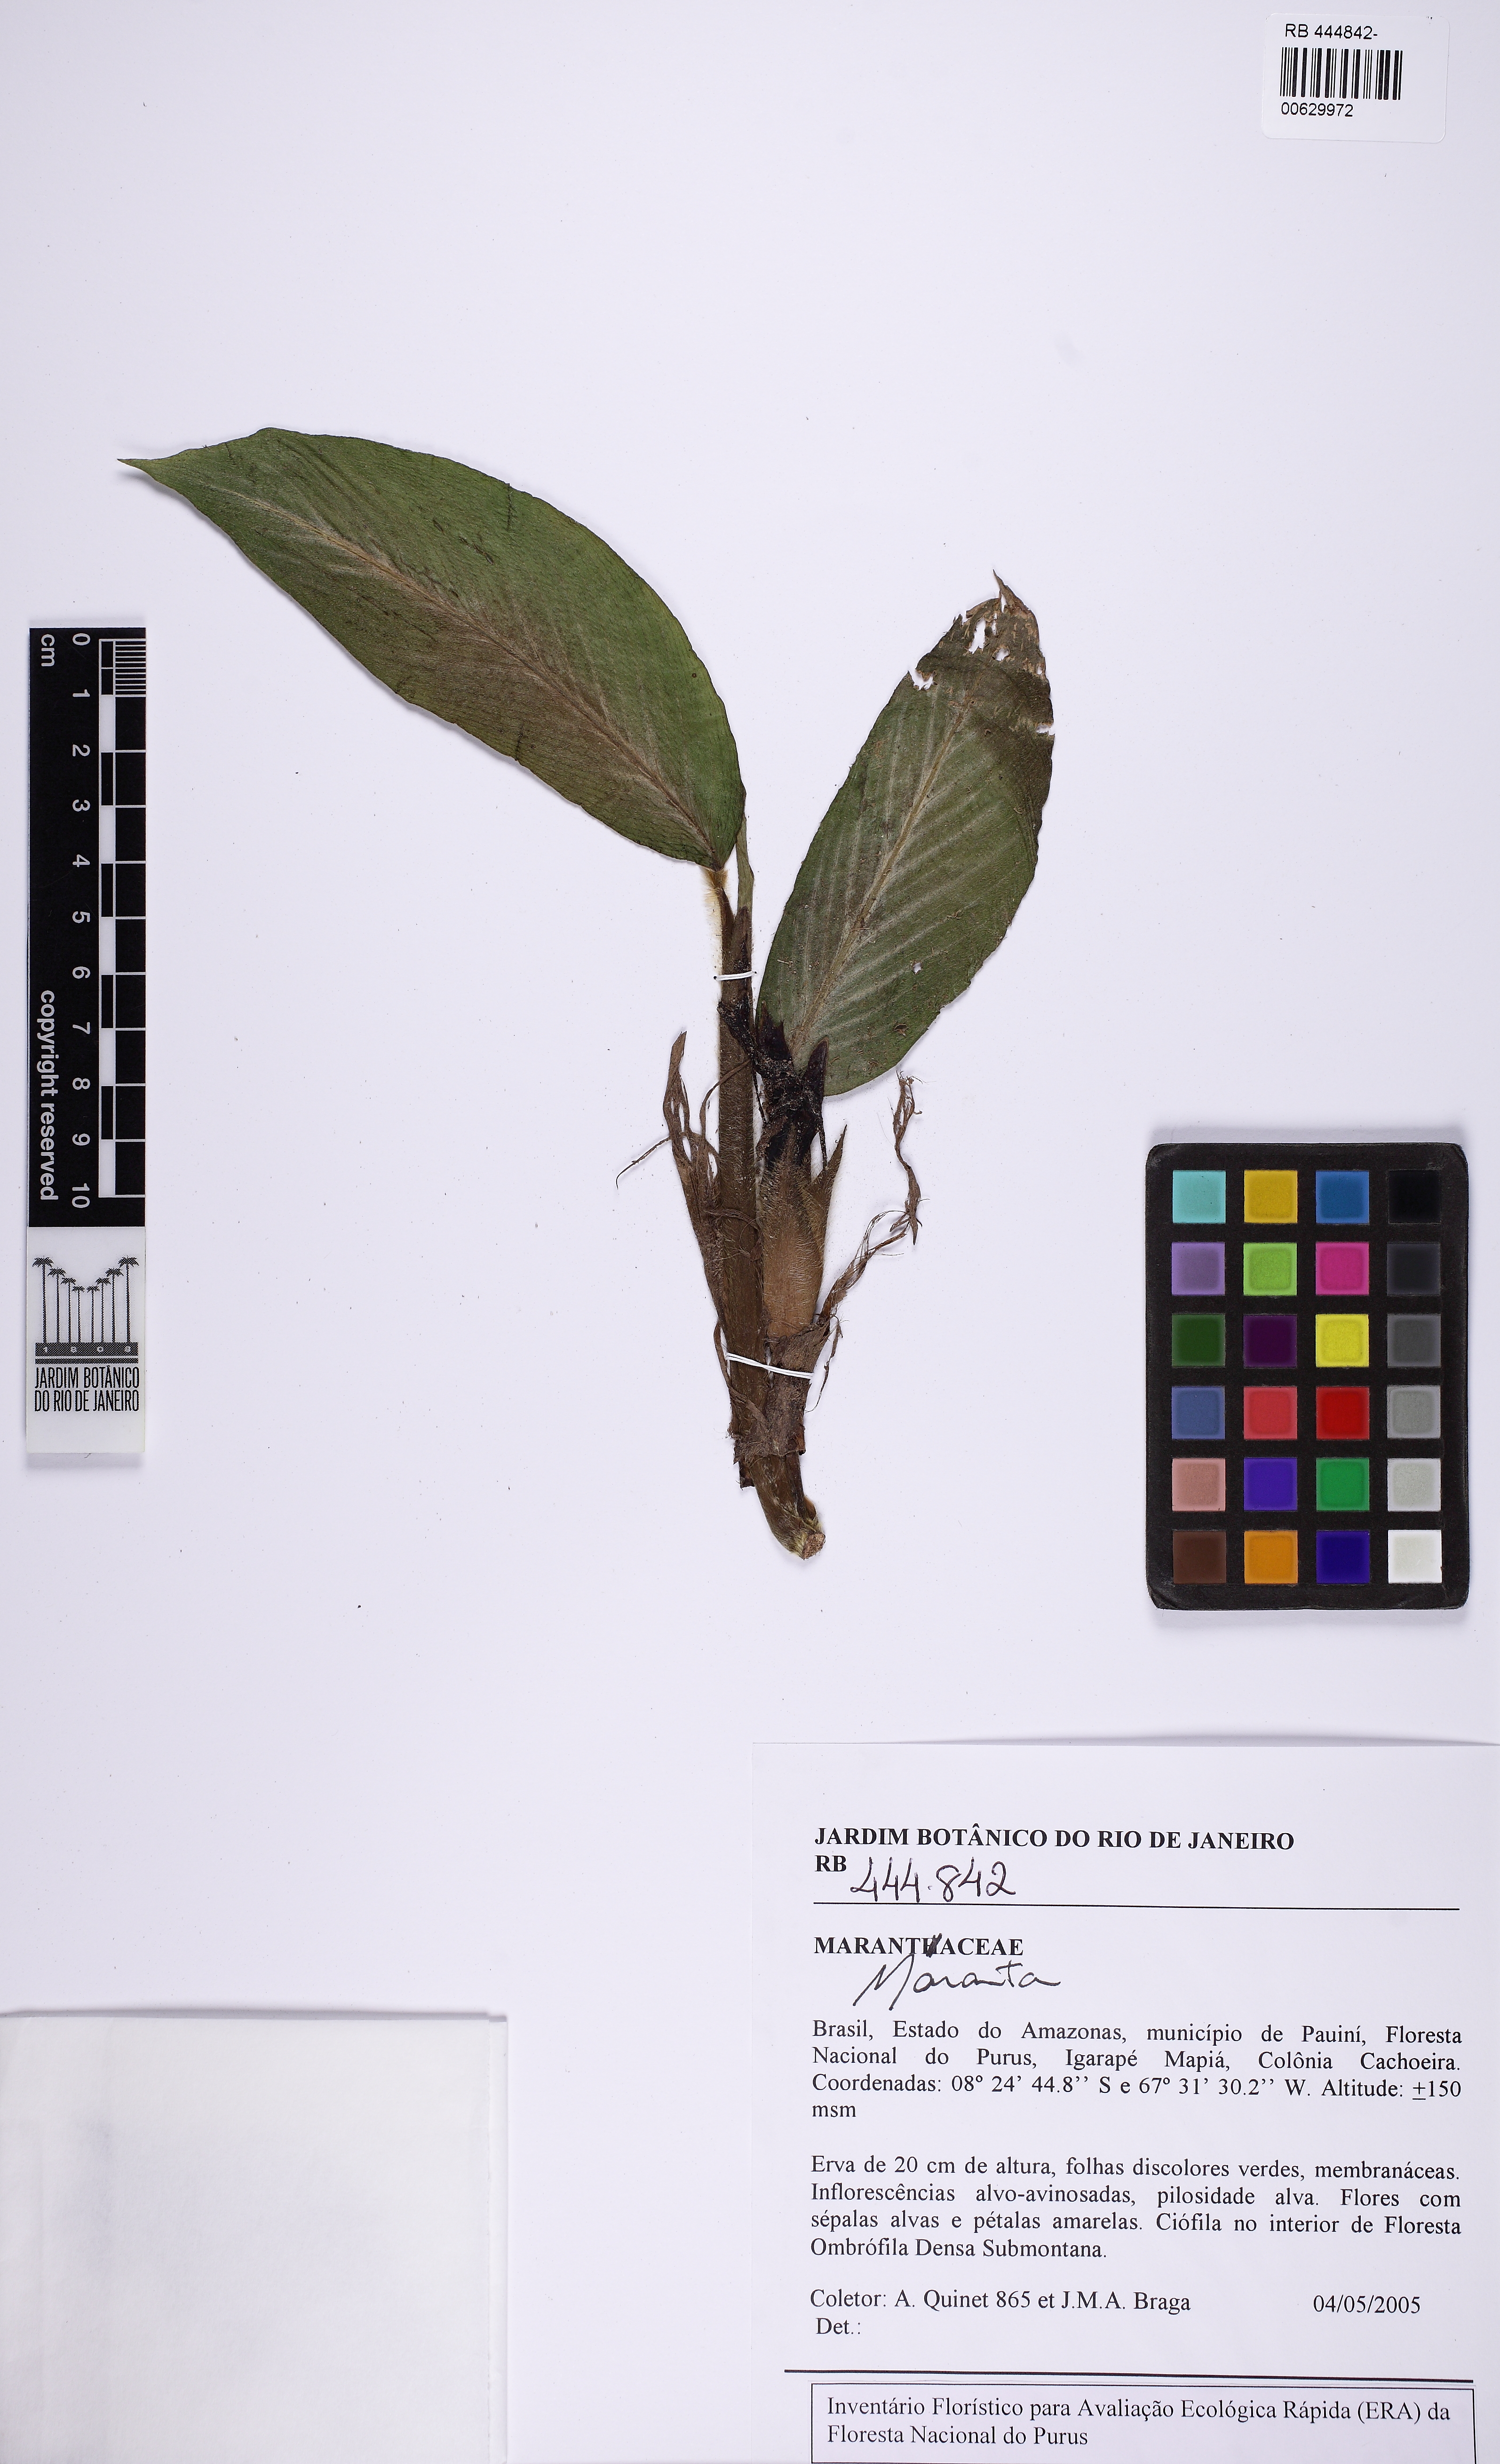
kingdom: Plantae
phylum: Tracheophyta
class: Liliopsida
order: Zingiberales
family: Marantaceae
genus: Goeppertia
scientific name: Goeppertia
